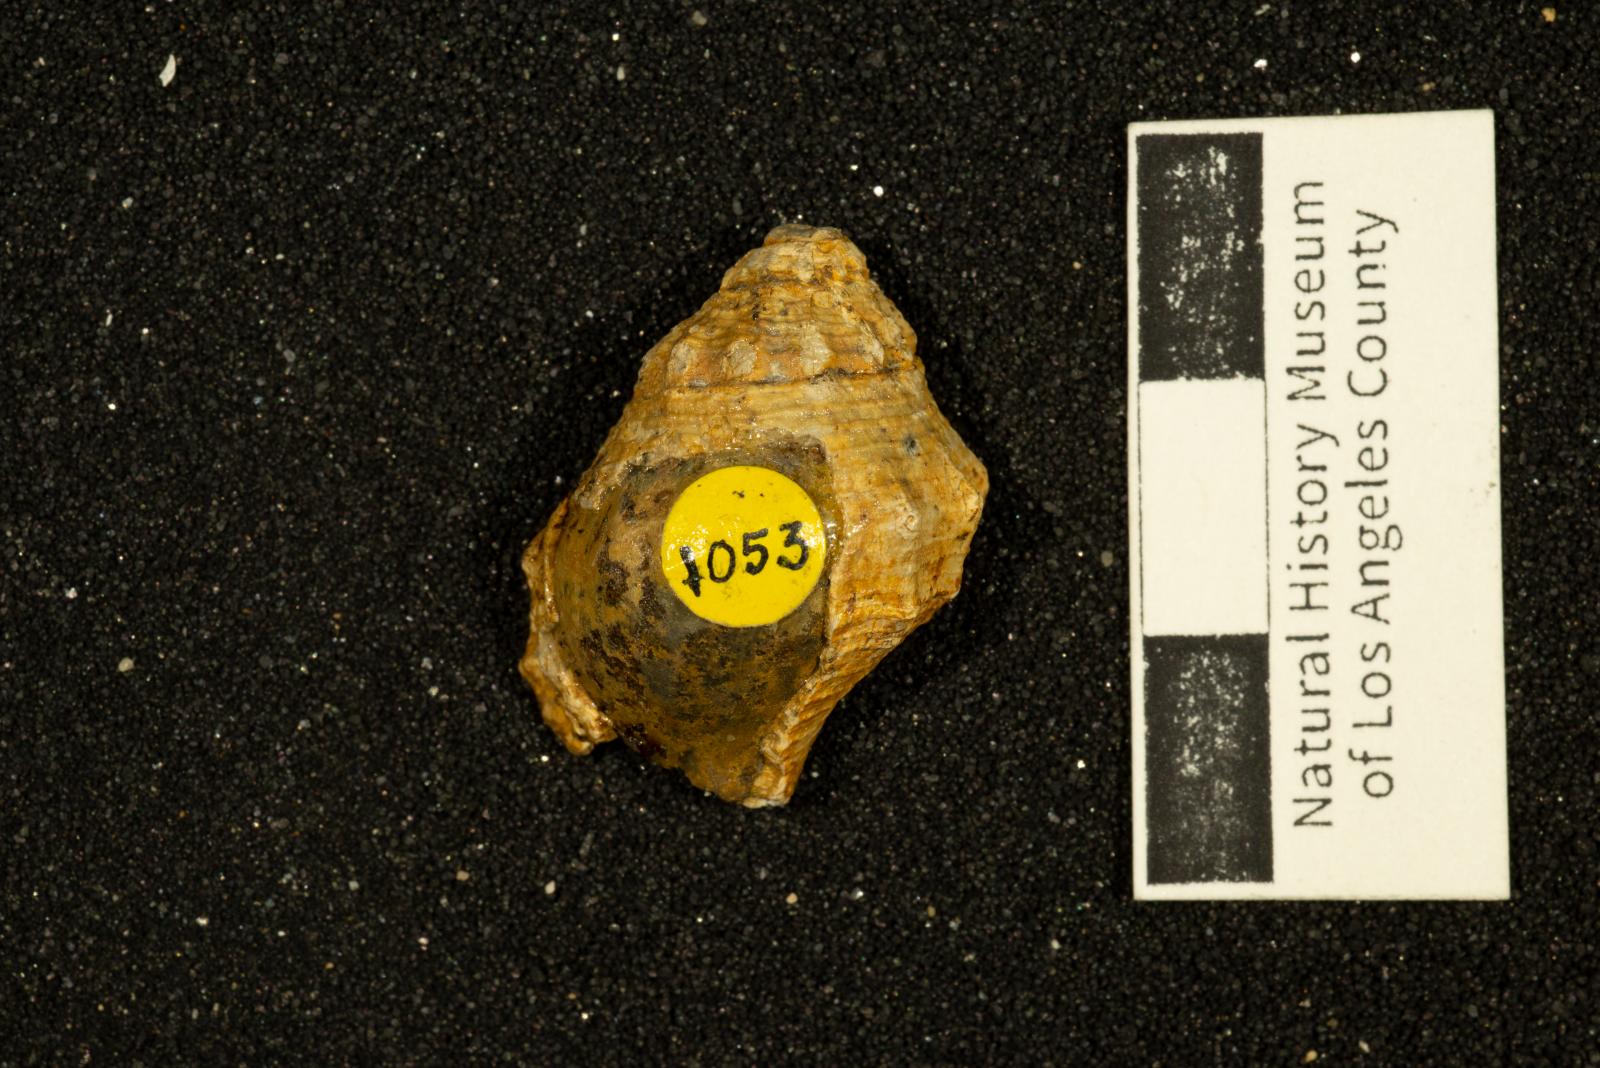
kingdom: Animalia
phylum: Mollusca
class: Gastropoda
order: Neogastropoda
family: Perissityidae
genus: Murphitys
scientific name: Murphitys corona
